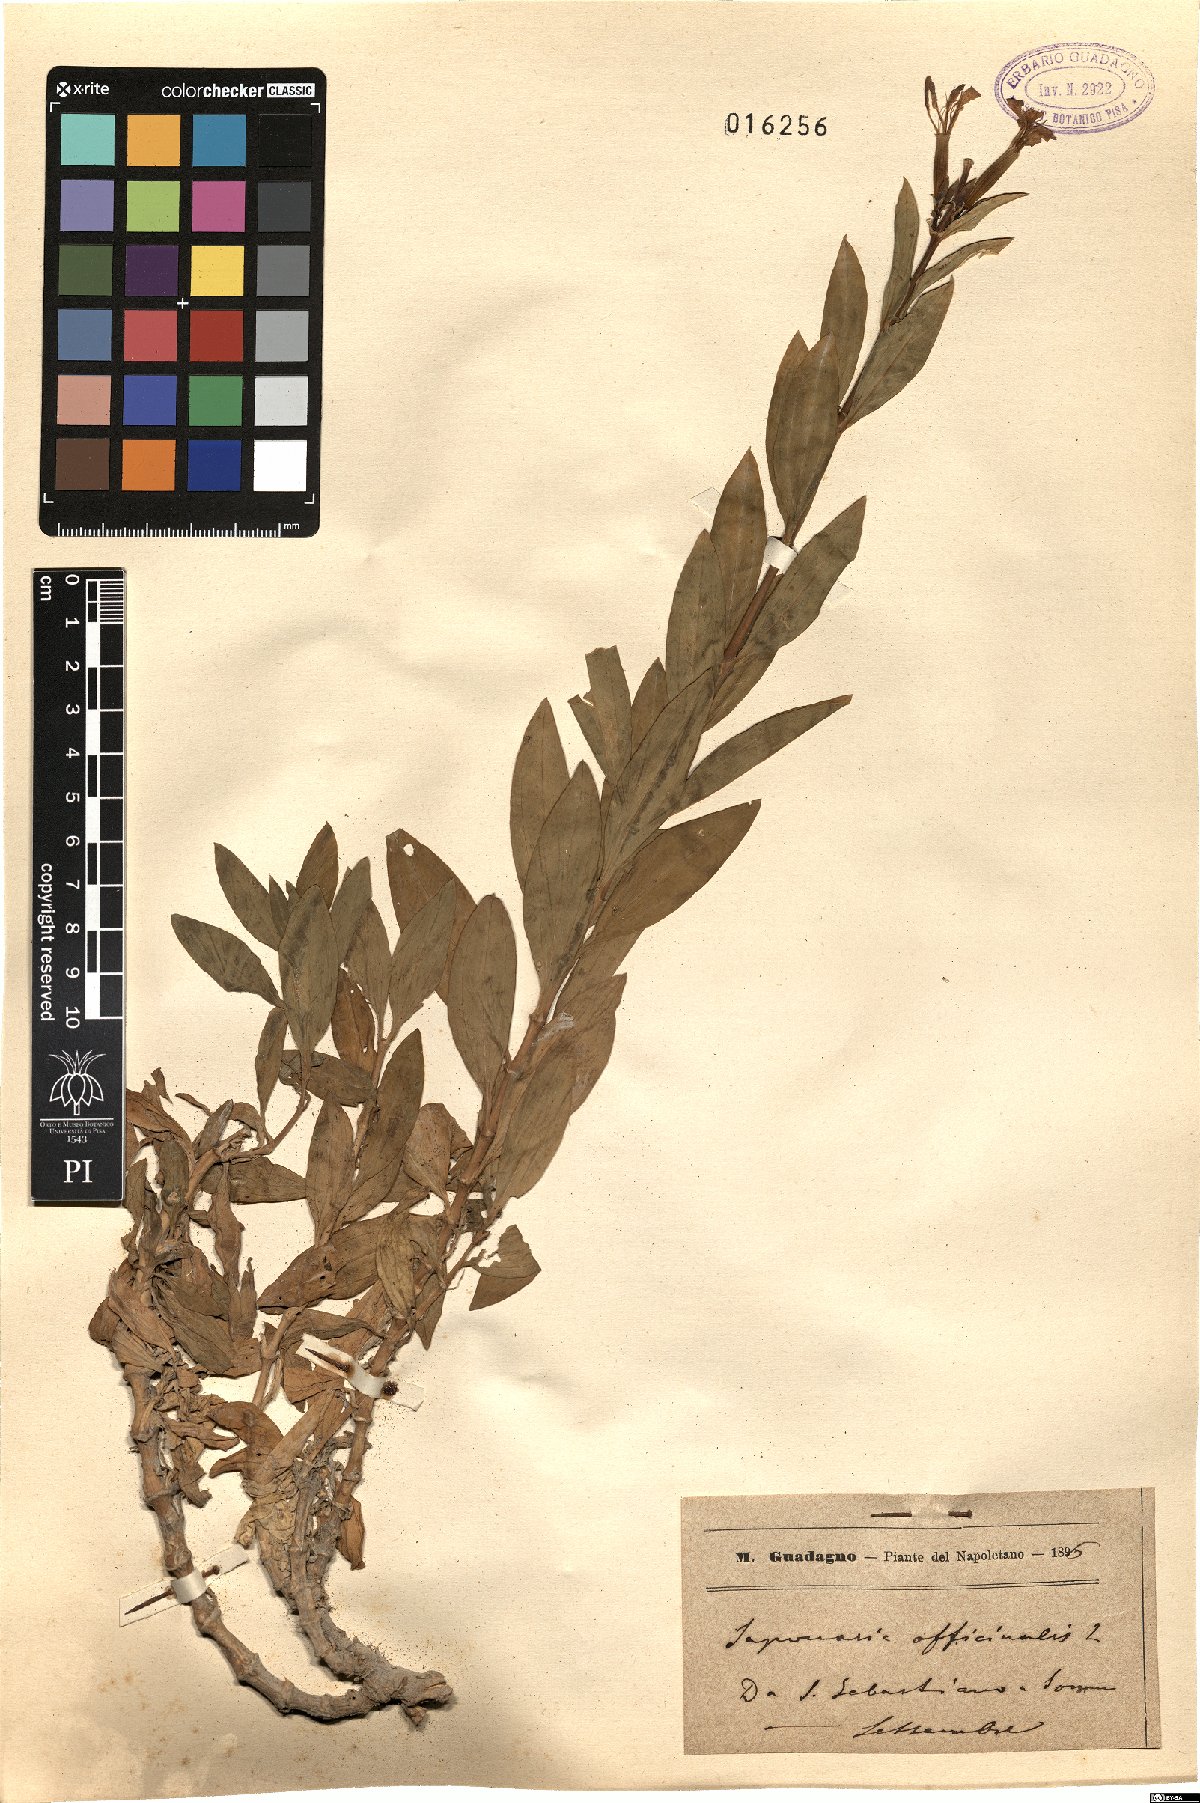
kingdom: Plantae
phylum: Tracheophyta
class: Magnoliopsida
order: Caryophyllales
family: Caryophyllaceae
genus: Saponaria
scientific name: Saponaria officinalis
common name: Soapwort
